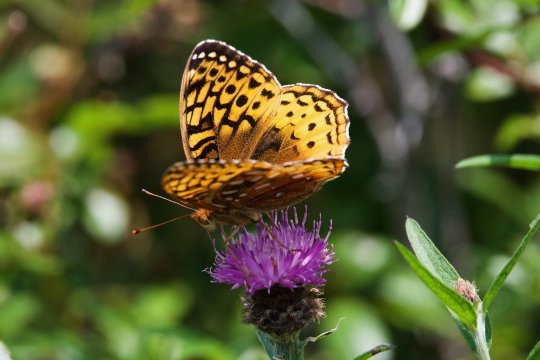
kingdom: Animalia
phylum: Arthropoda
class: Insecta
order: Lepidoptera
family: Nymphalidae
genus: Speyeria
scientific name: Speyeria cybele
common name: Great Spangled Fritillary
